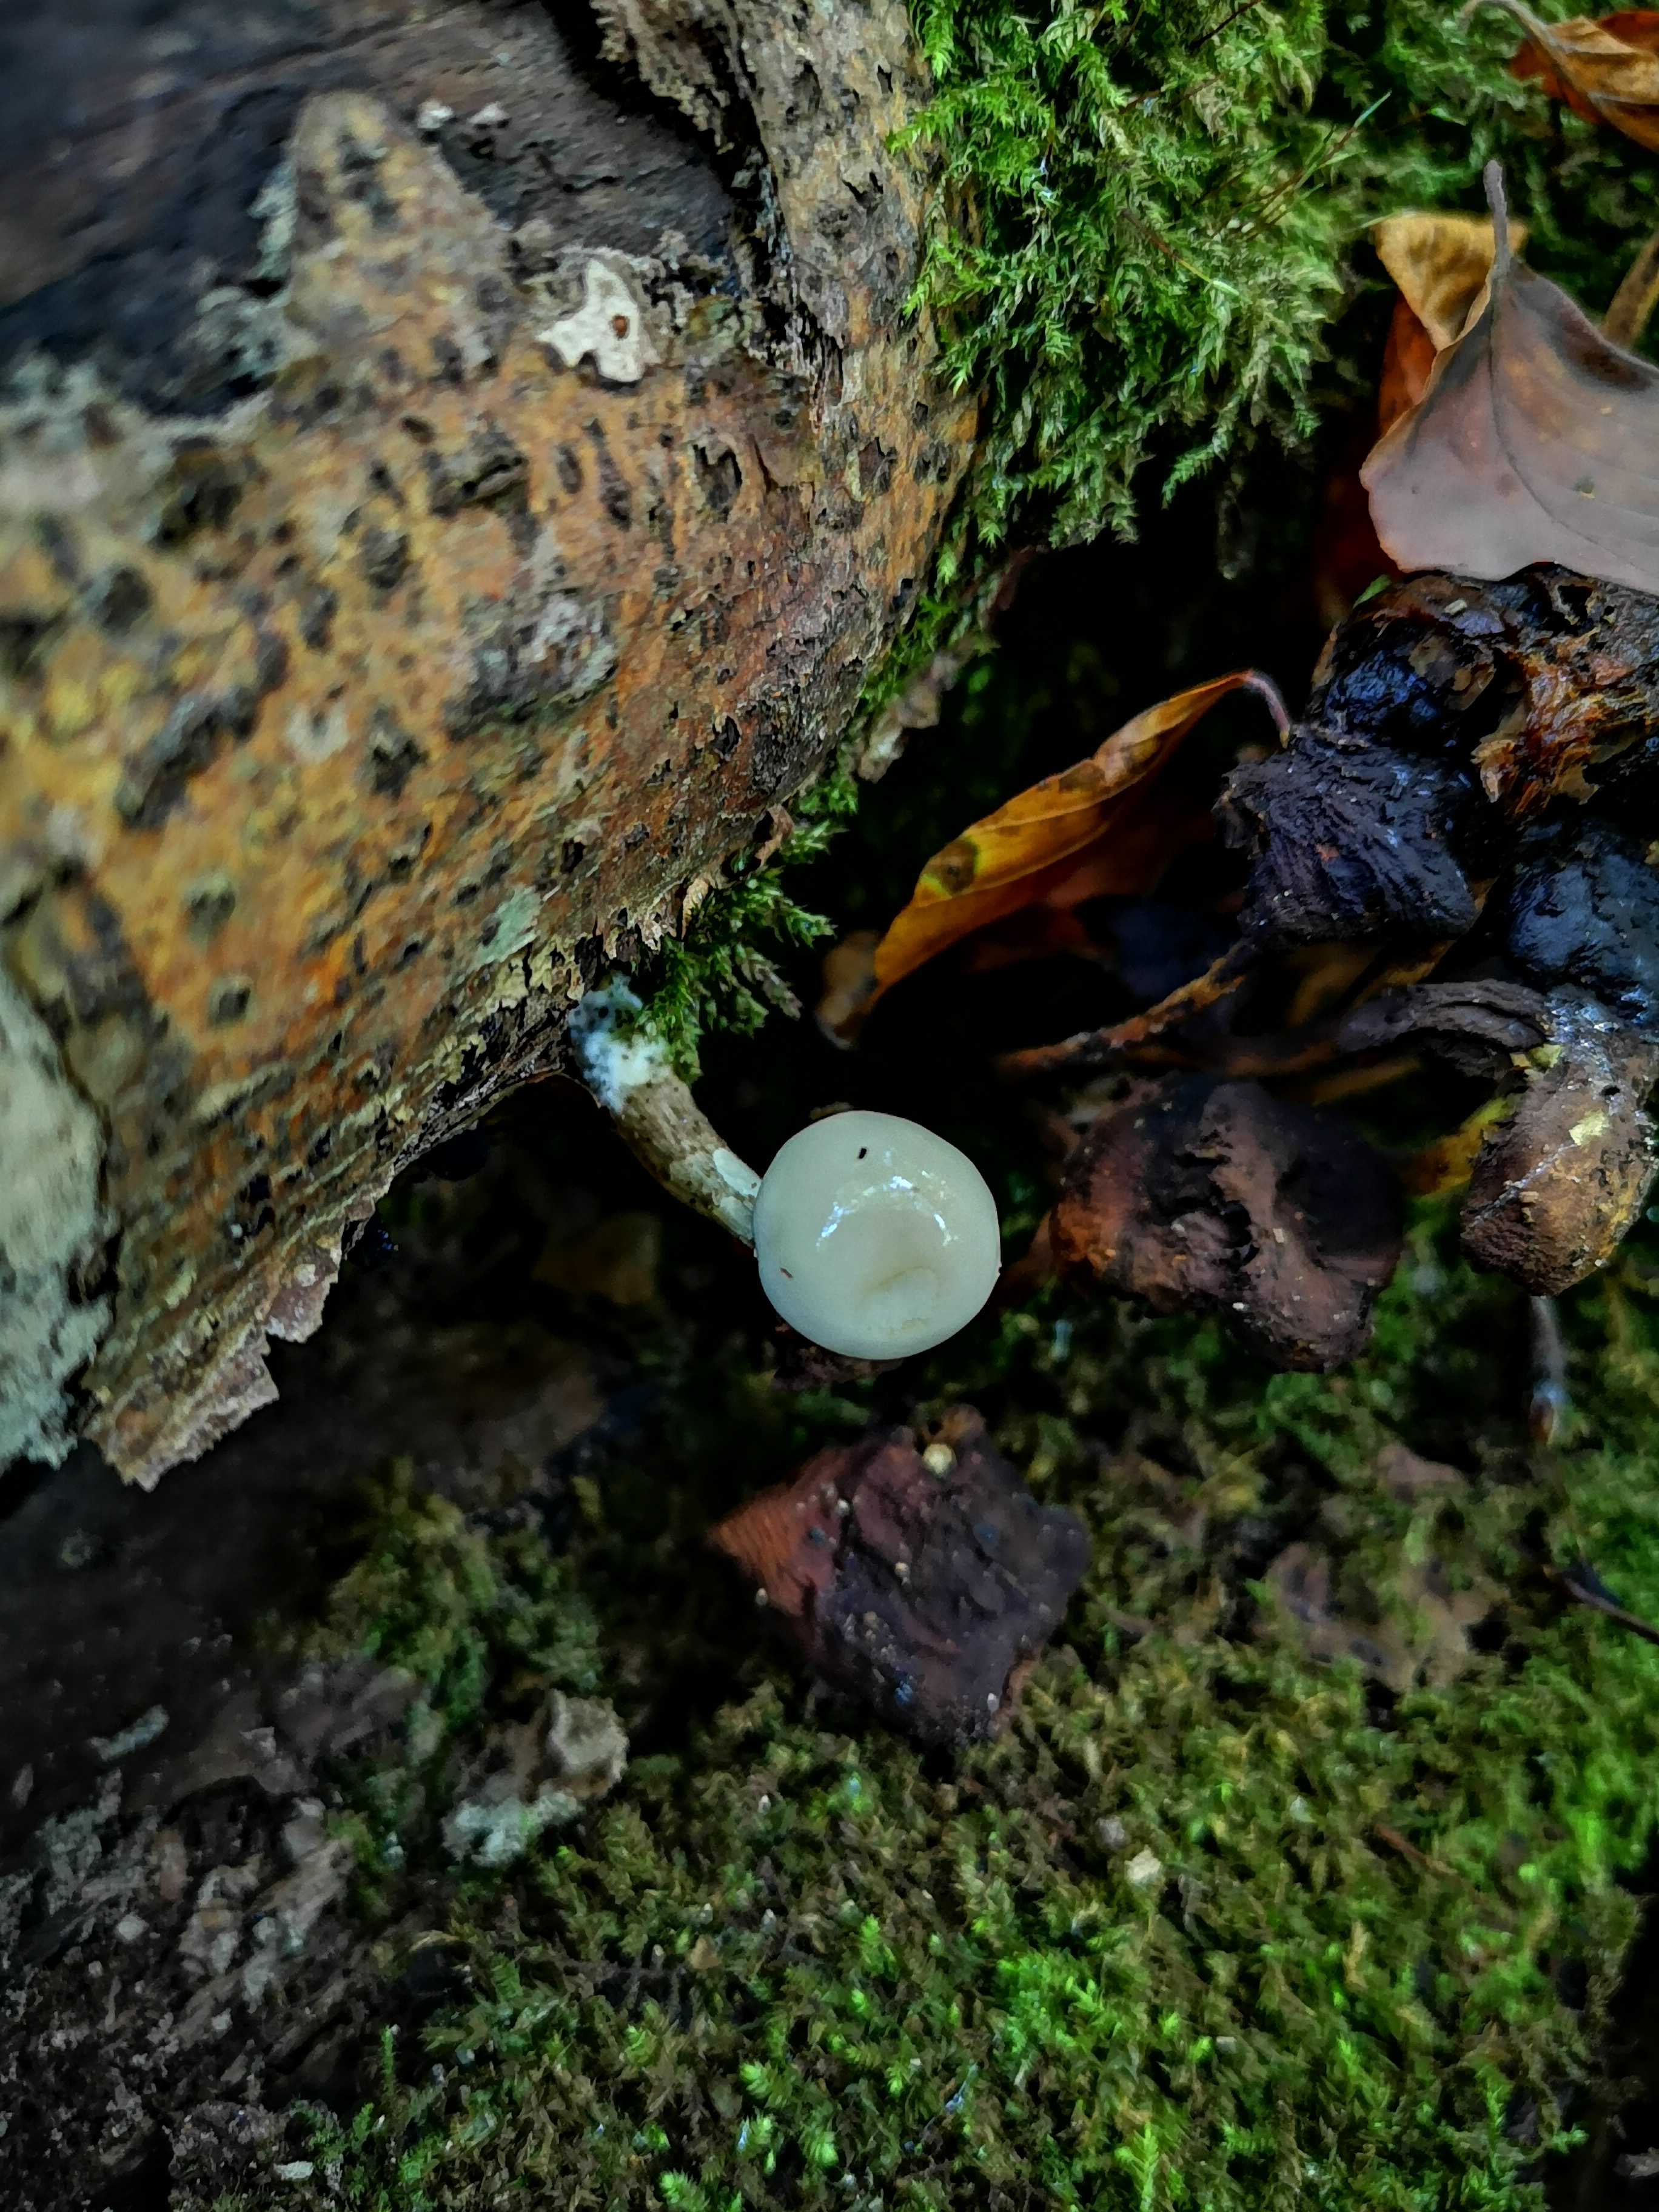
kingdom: Fungi
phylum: Basidiomycota
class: Agaricomycetes
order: Agaricales
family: Physalacriaceae
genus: Mucidula
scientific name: Mucidula mucida
